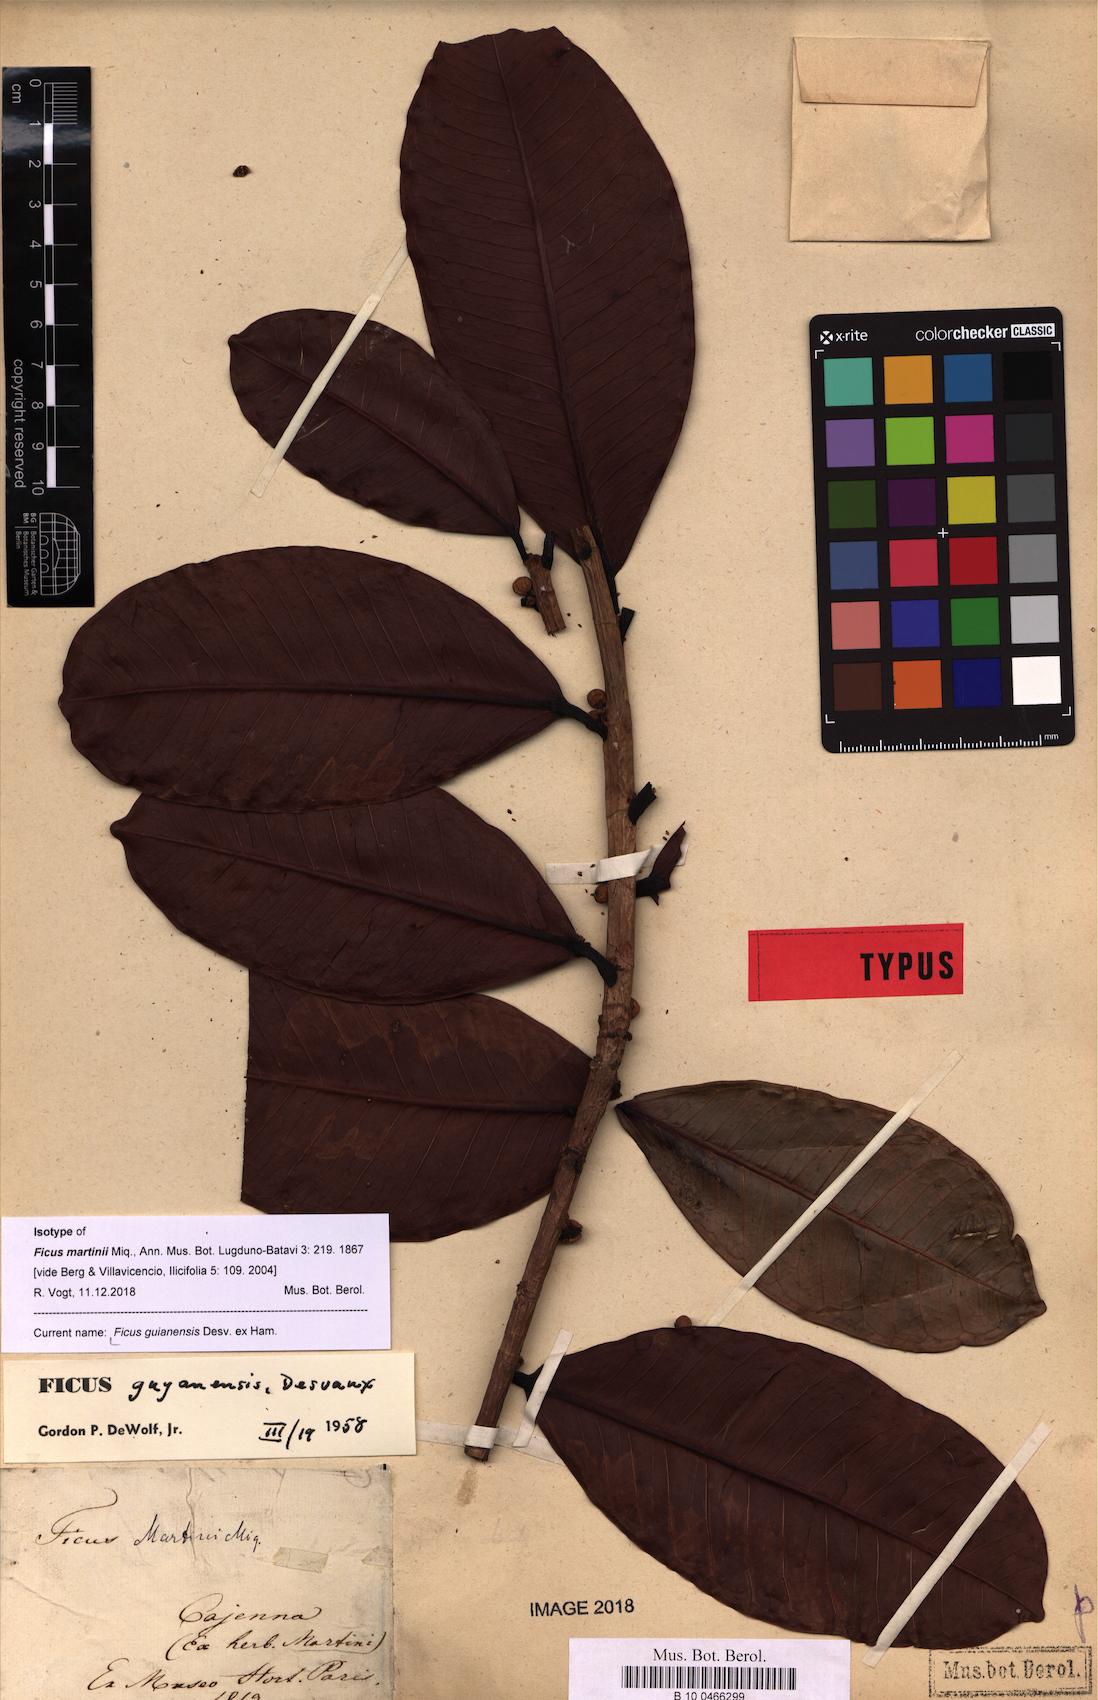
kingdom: Plantae
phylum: Tracheophyta
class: Magnoliopsida
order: Rosales
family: Moraceae
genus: Ficus
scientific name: Ficus guianensis
